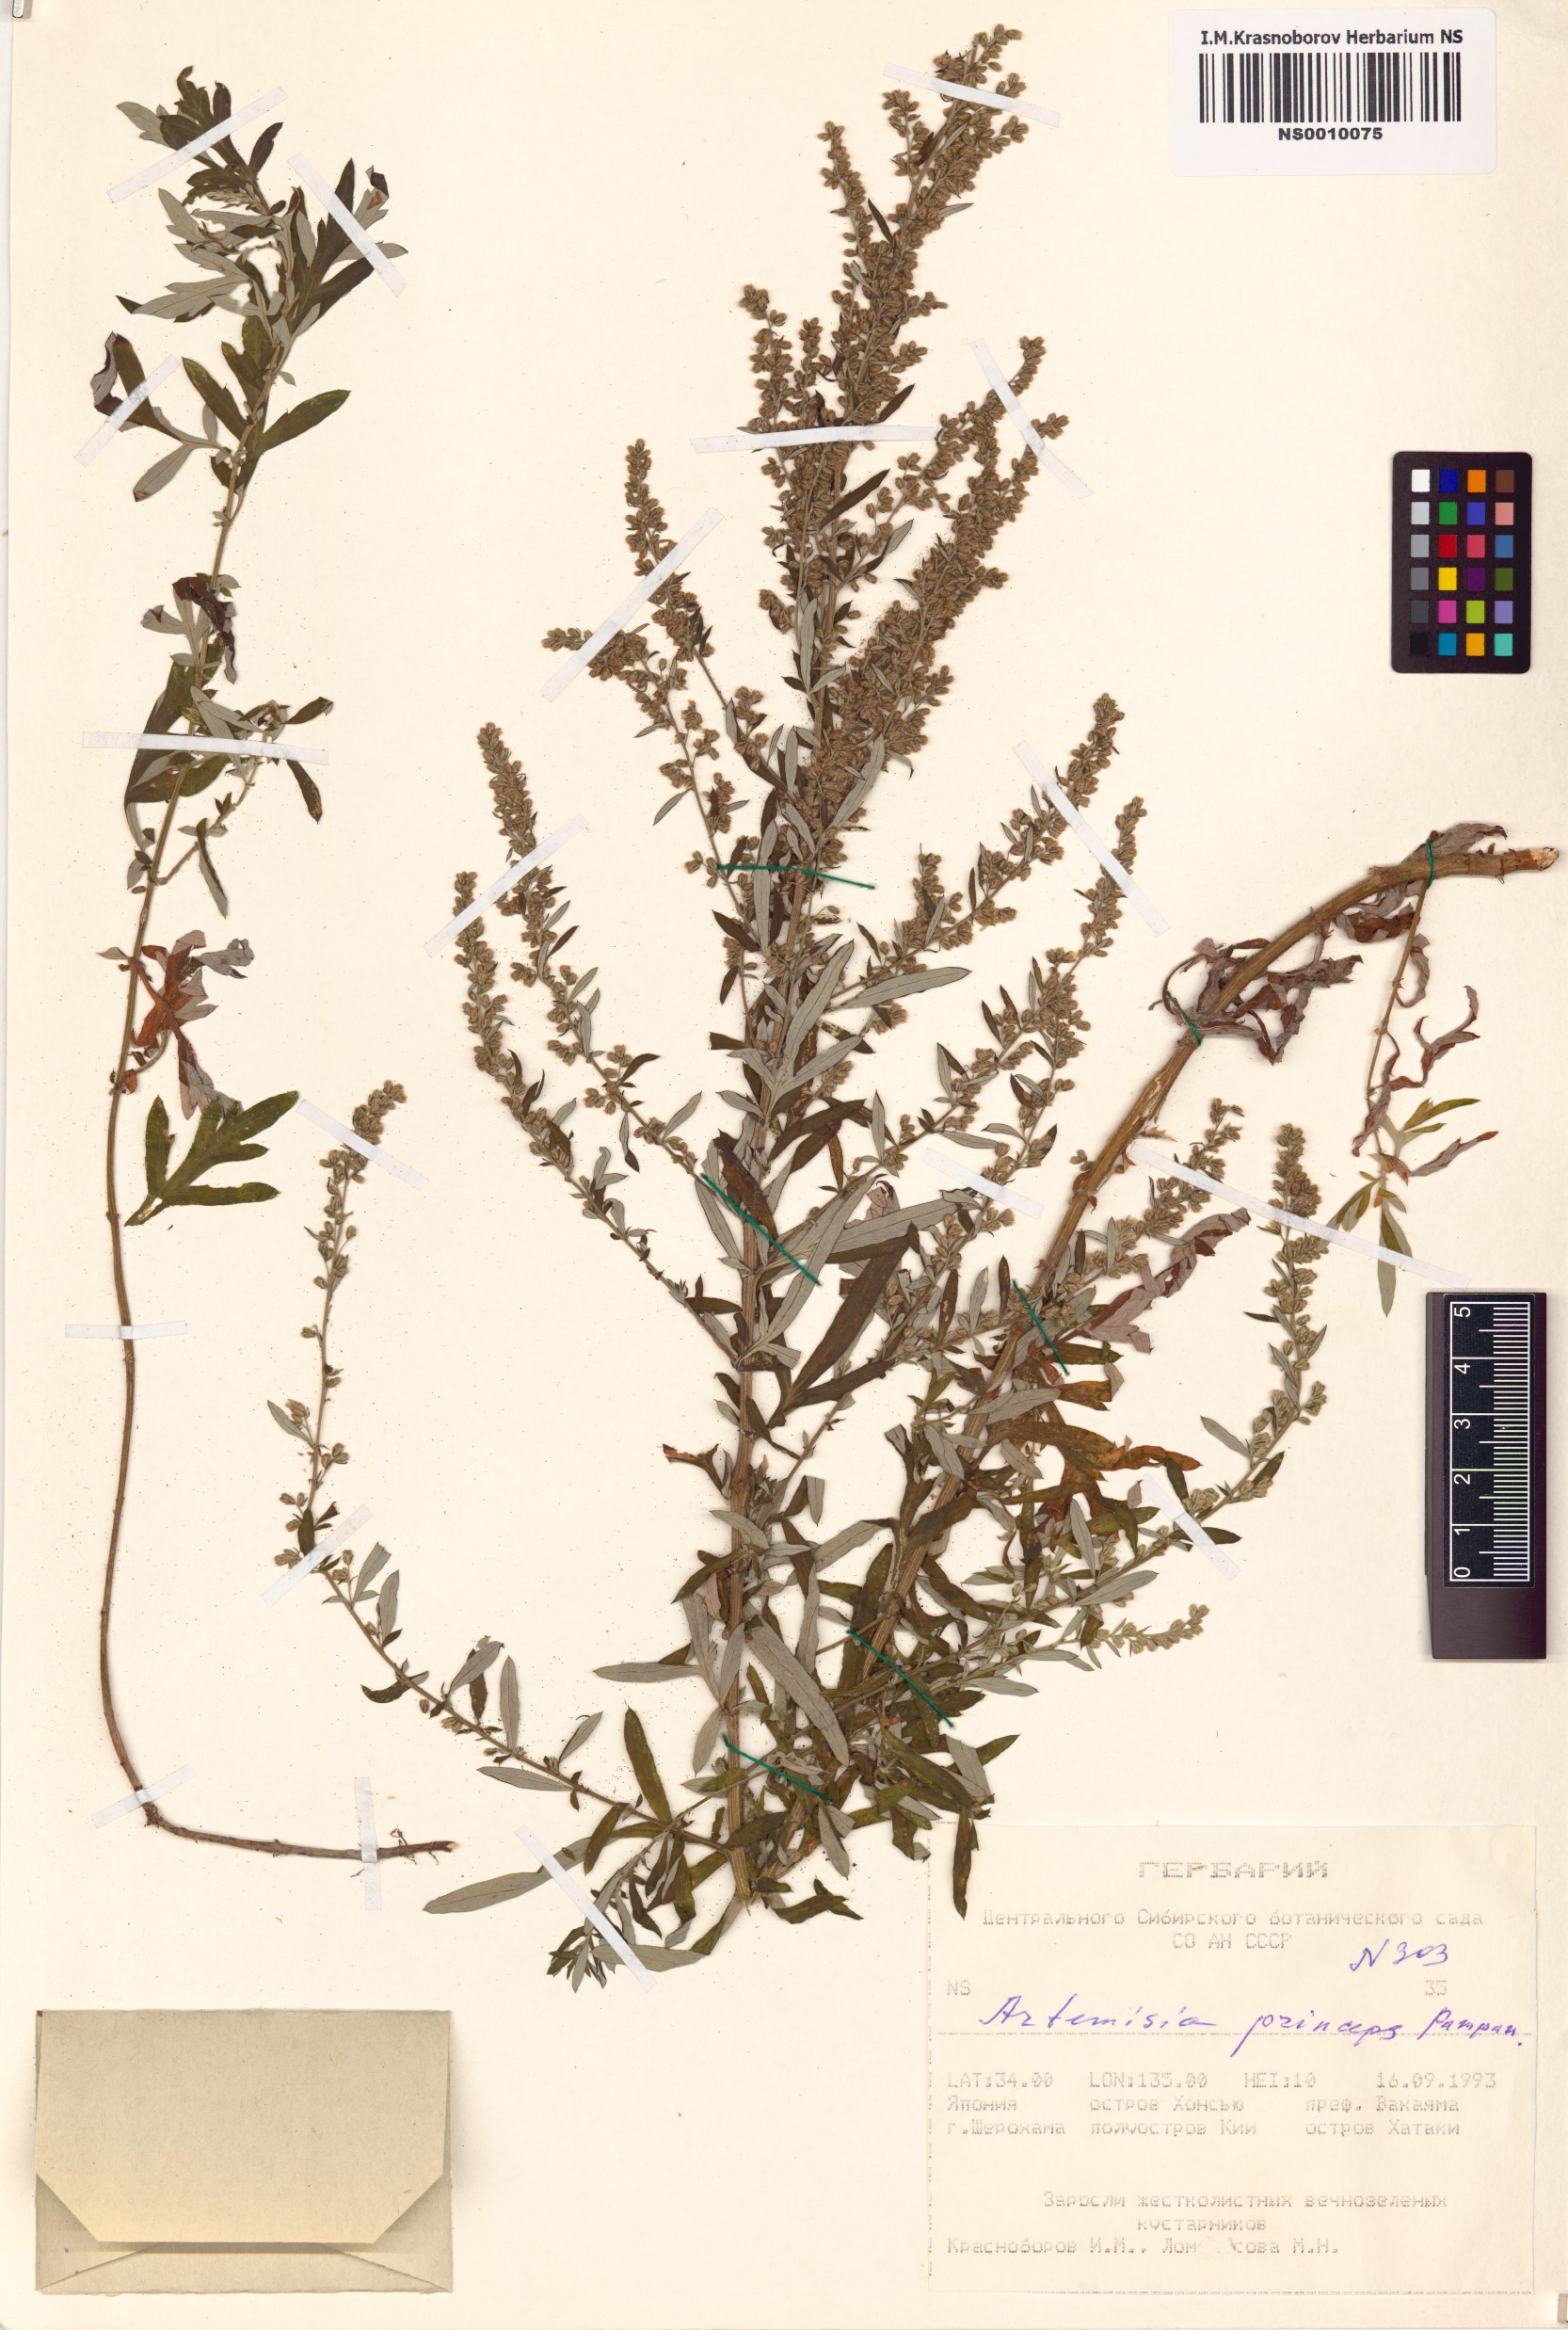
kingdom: Plantae
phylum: Tracheophyta
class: Magnoliopsida
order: Asterales
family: Asteraceae
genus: Artemisia
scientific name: Artemisia princeps
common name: Japanese mugwort
